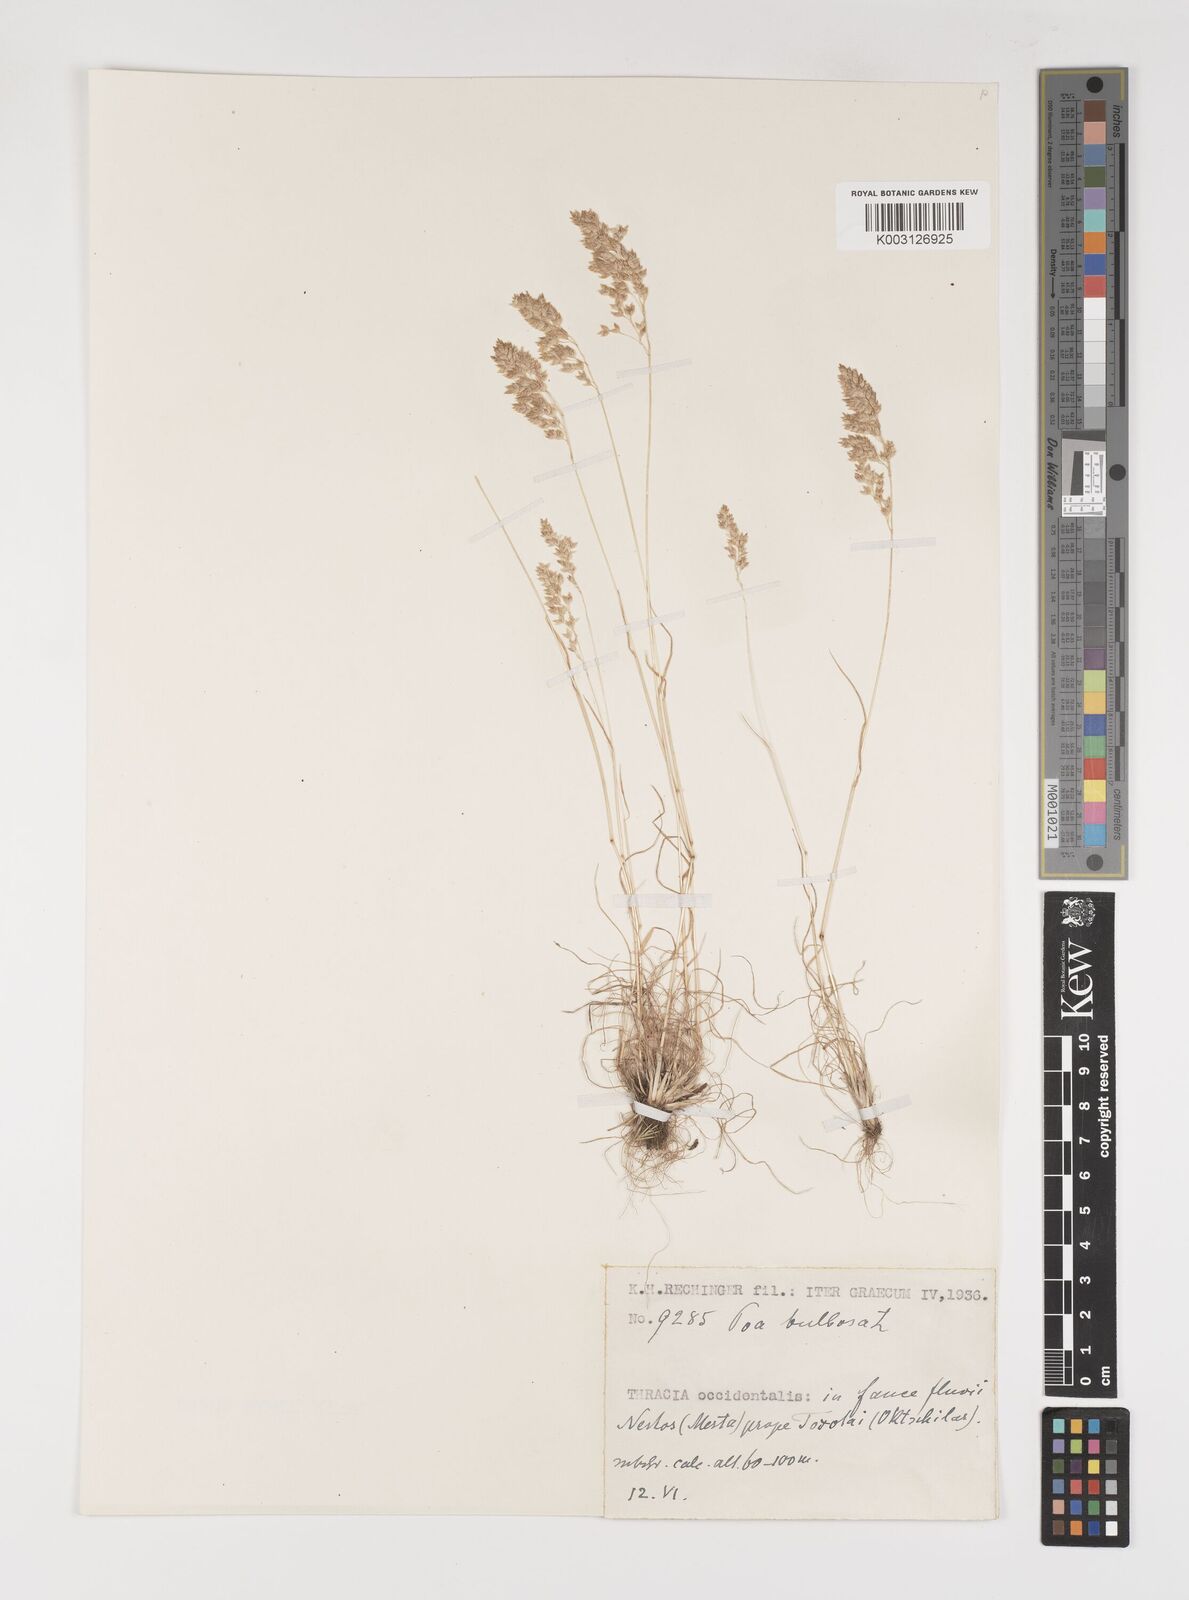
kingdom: Plantae
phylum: Tracheophyta
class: Liliopsida
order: Poales
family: Poaceae
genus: Poa
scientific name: Poa bulbosa
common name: Bulbous bluegrass
